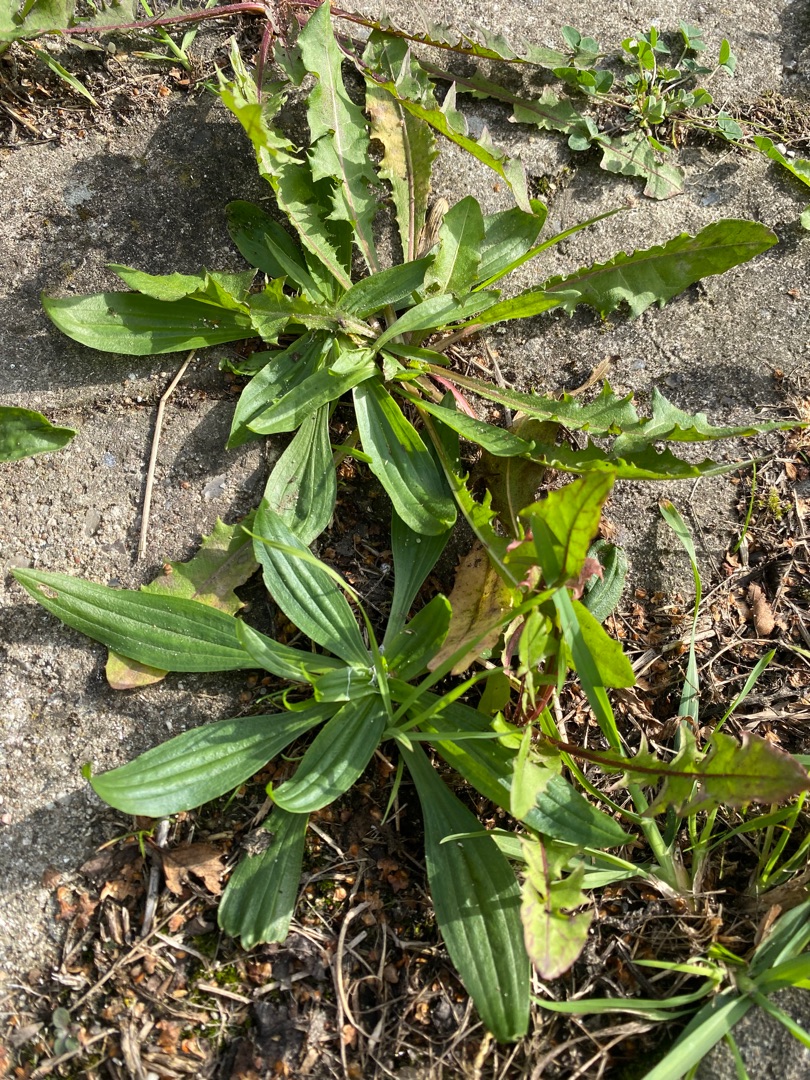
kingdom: Plantae
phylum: Tracheophyta
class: Magnoliopsida
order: Lamiales
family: Plantaginaceae
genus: Plantago
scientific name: Plantago lanceolata
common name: Lancet-vejbred
